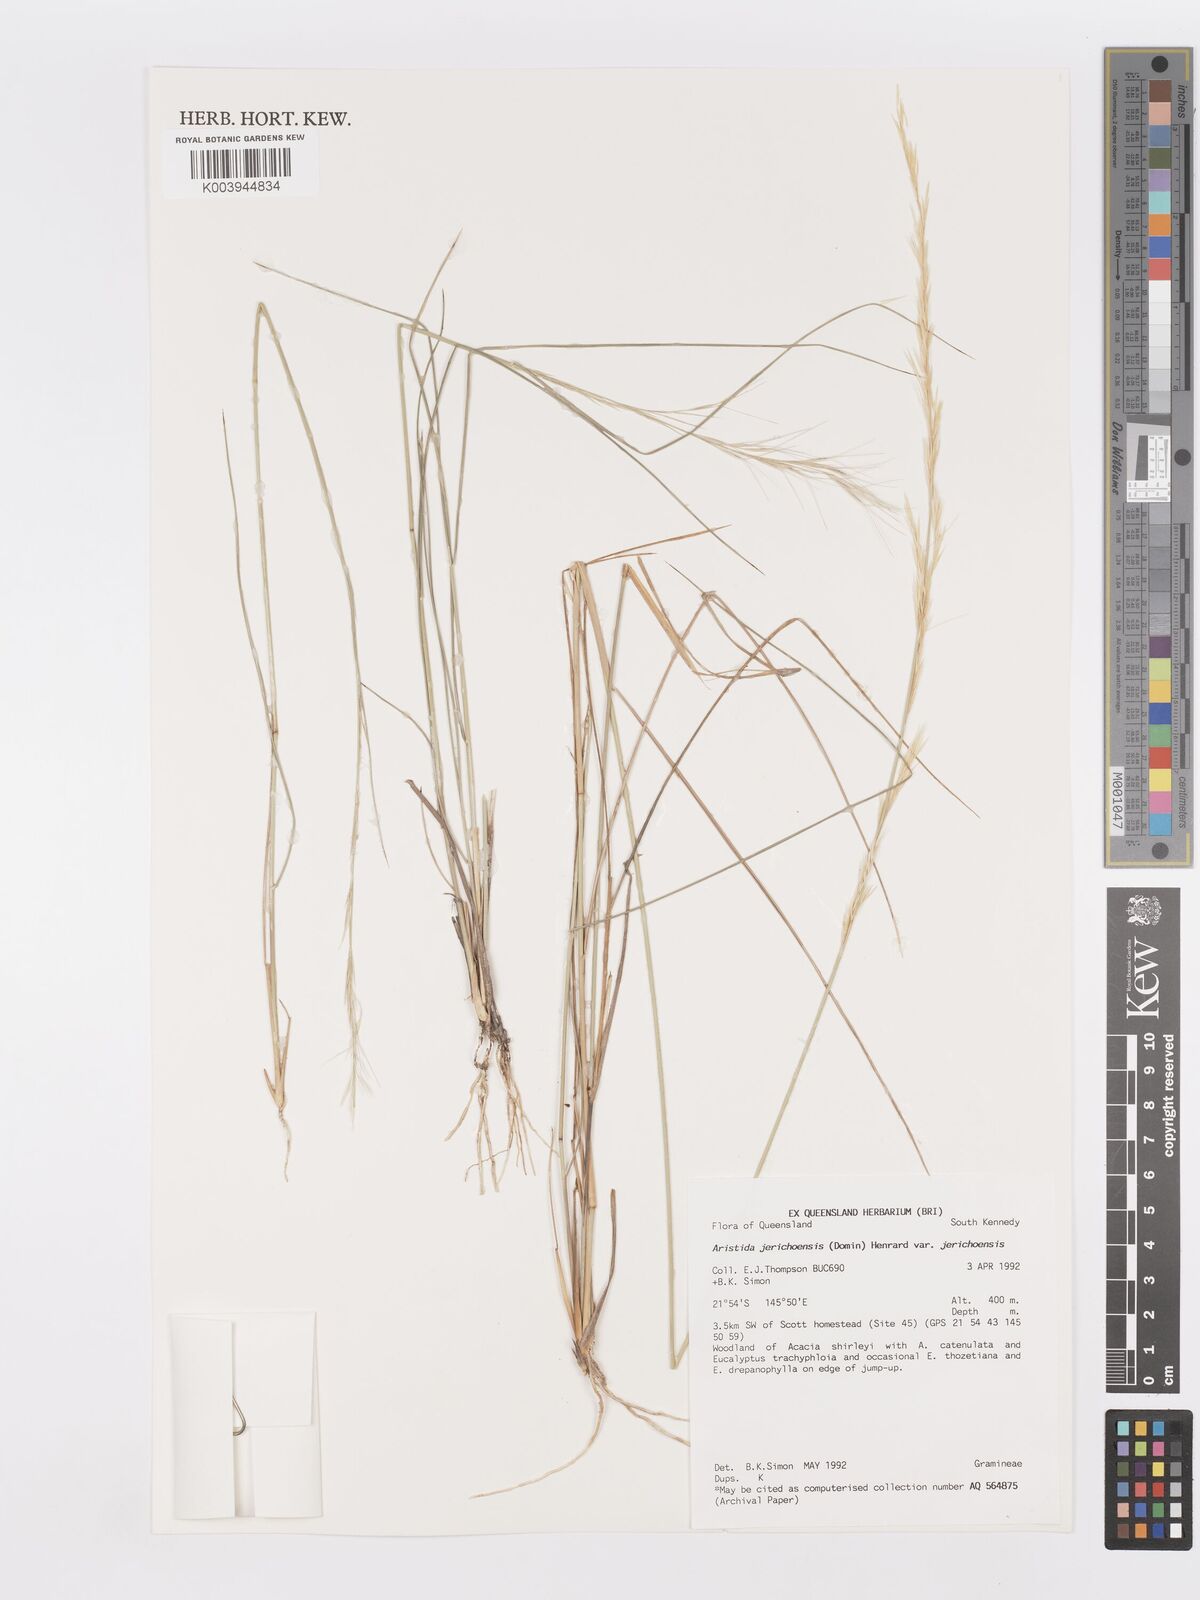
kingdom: Plantae
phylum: Tracheophyta
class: Liliopsida
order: Poales
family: Poaceae
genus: Aristida
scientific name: Aristida jerichoensis
